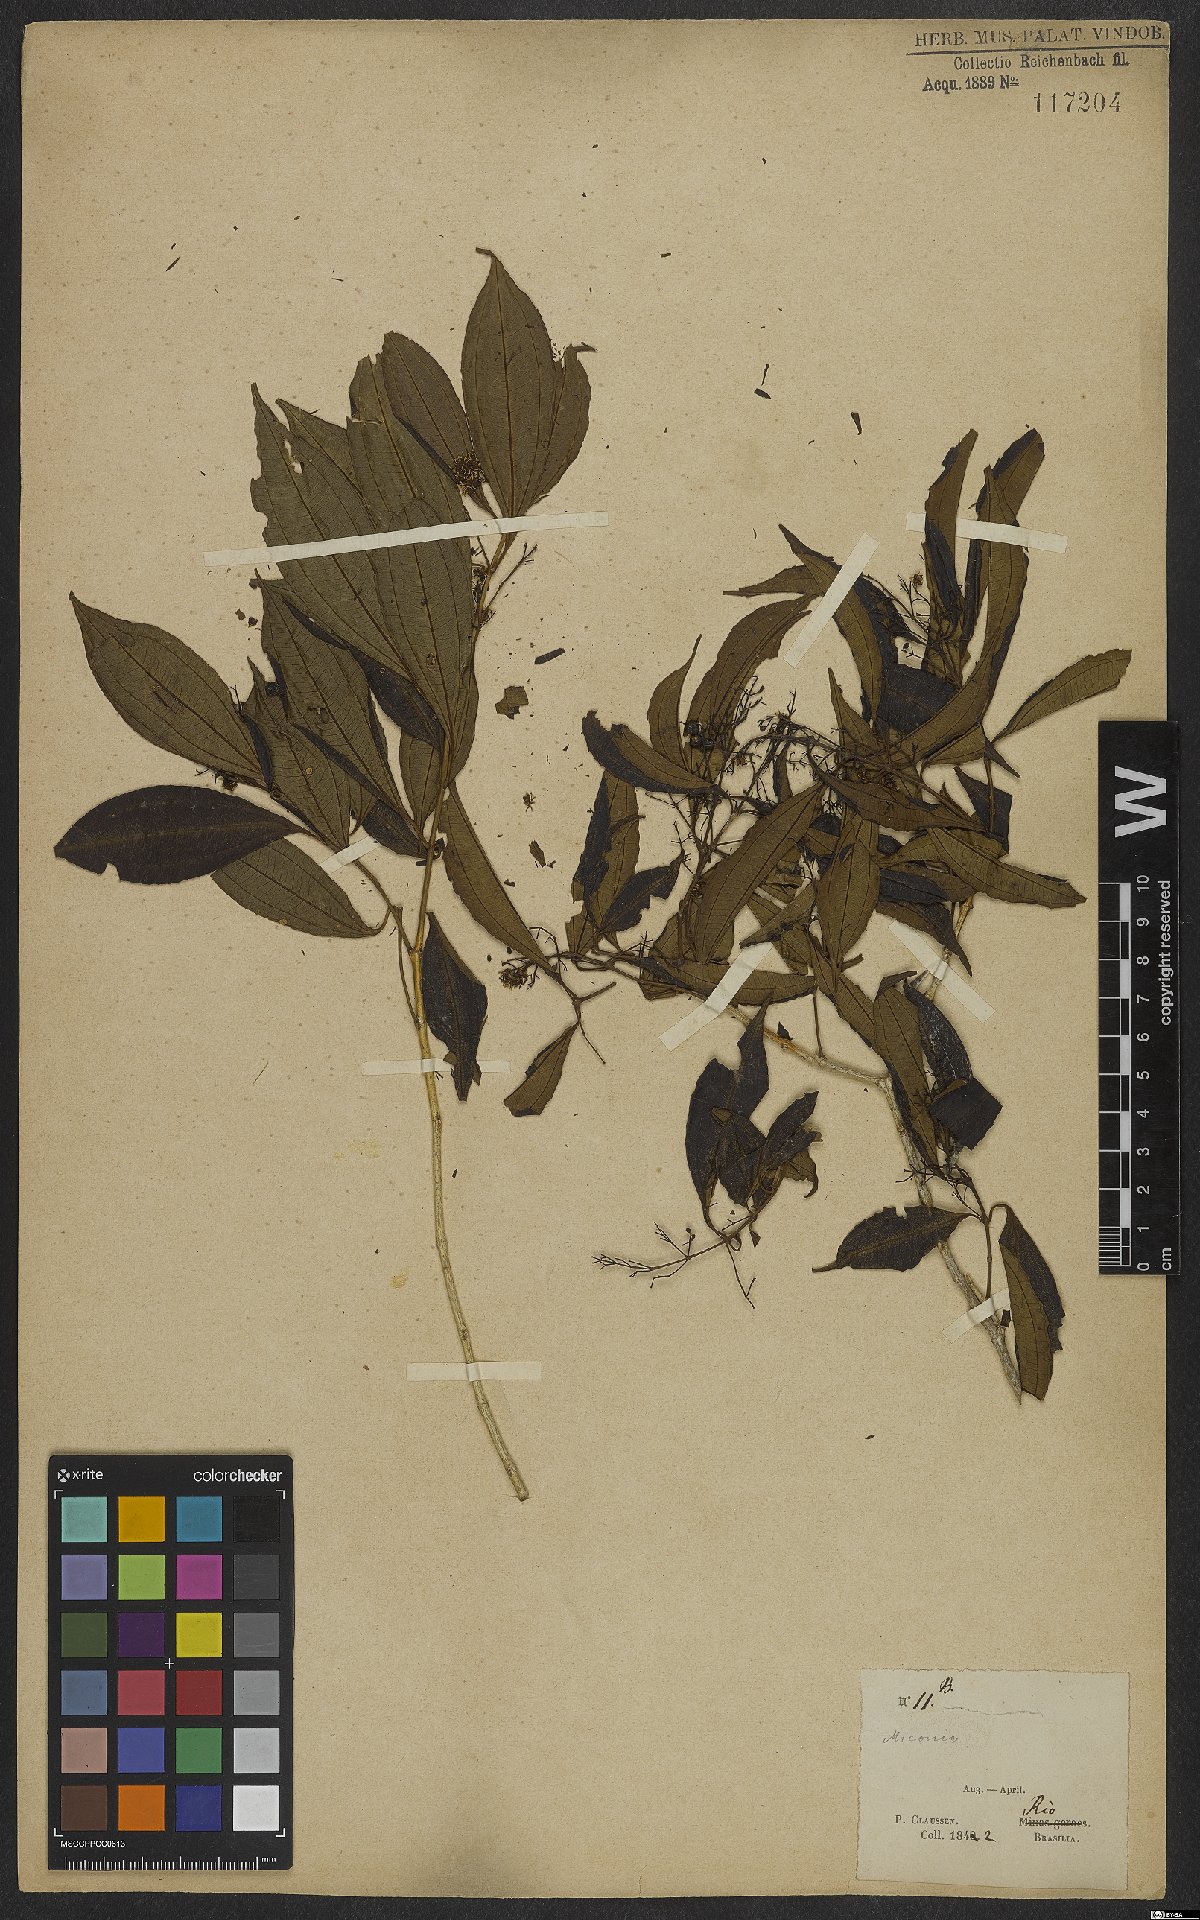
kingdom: Plantae
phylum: Tracheophyta
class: Magnoliopsida
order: Myrtales
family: Melastomataceae
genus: Miconia
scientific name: Miconia
